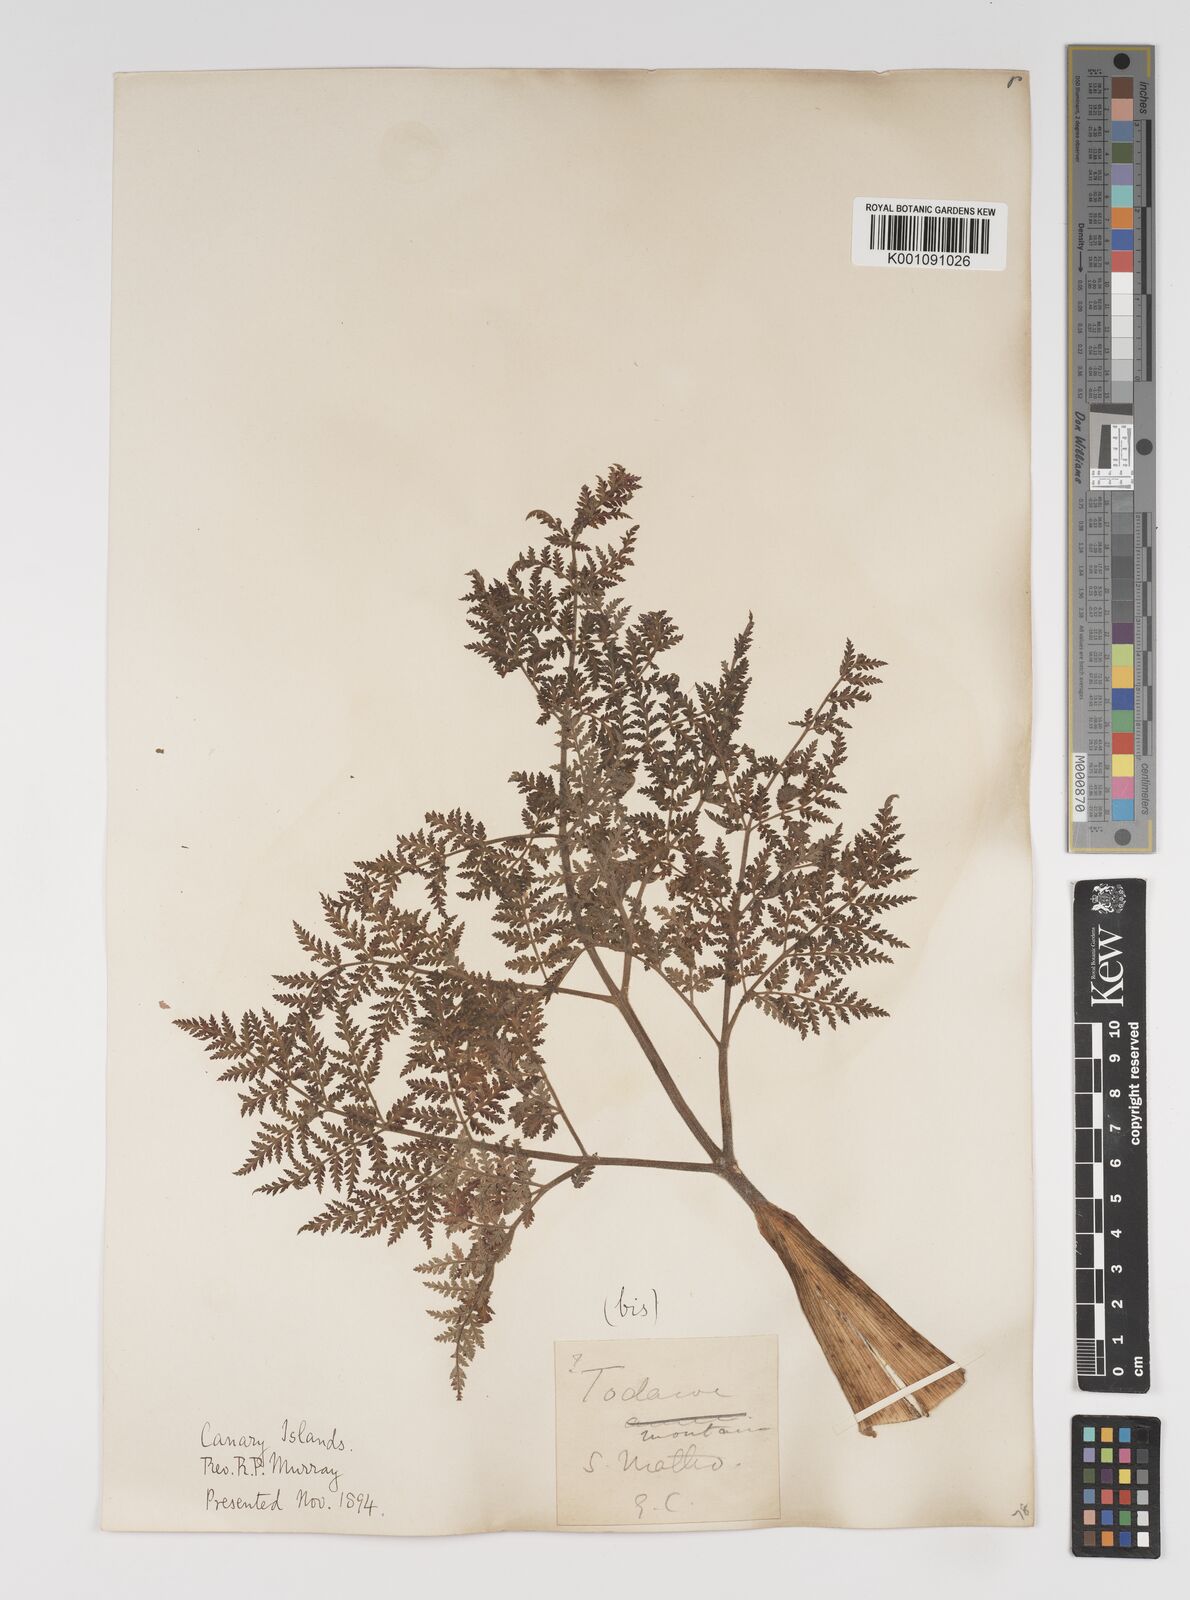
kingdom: Plantae
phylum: Tracheophyta
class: Magnoliopsida
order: Apiales
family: Apiaceae
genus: Athamanta
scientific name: Athamanta montana
